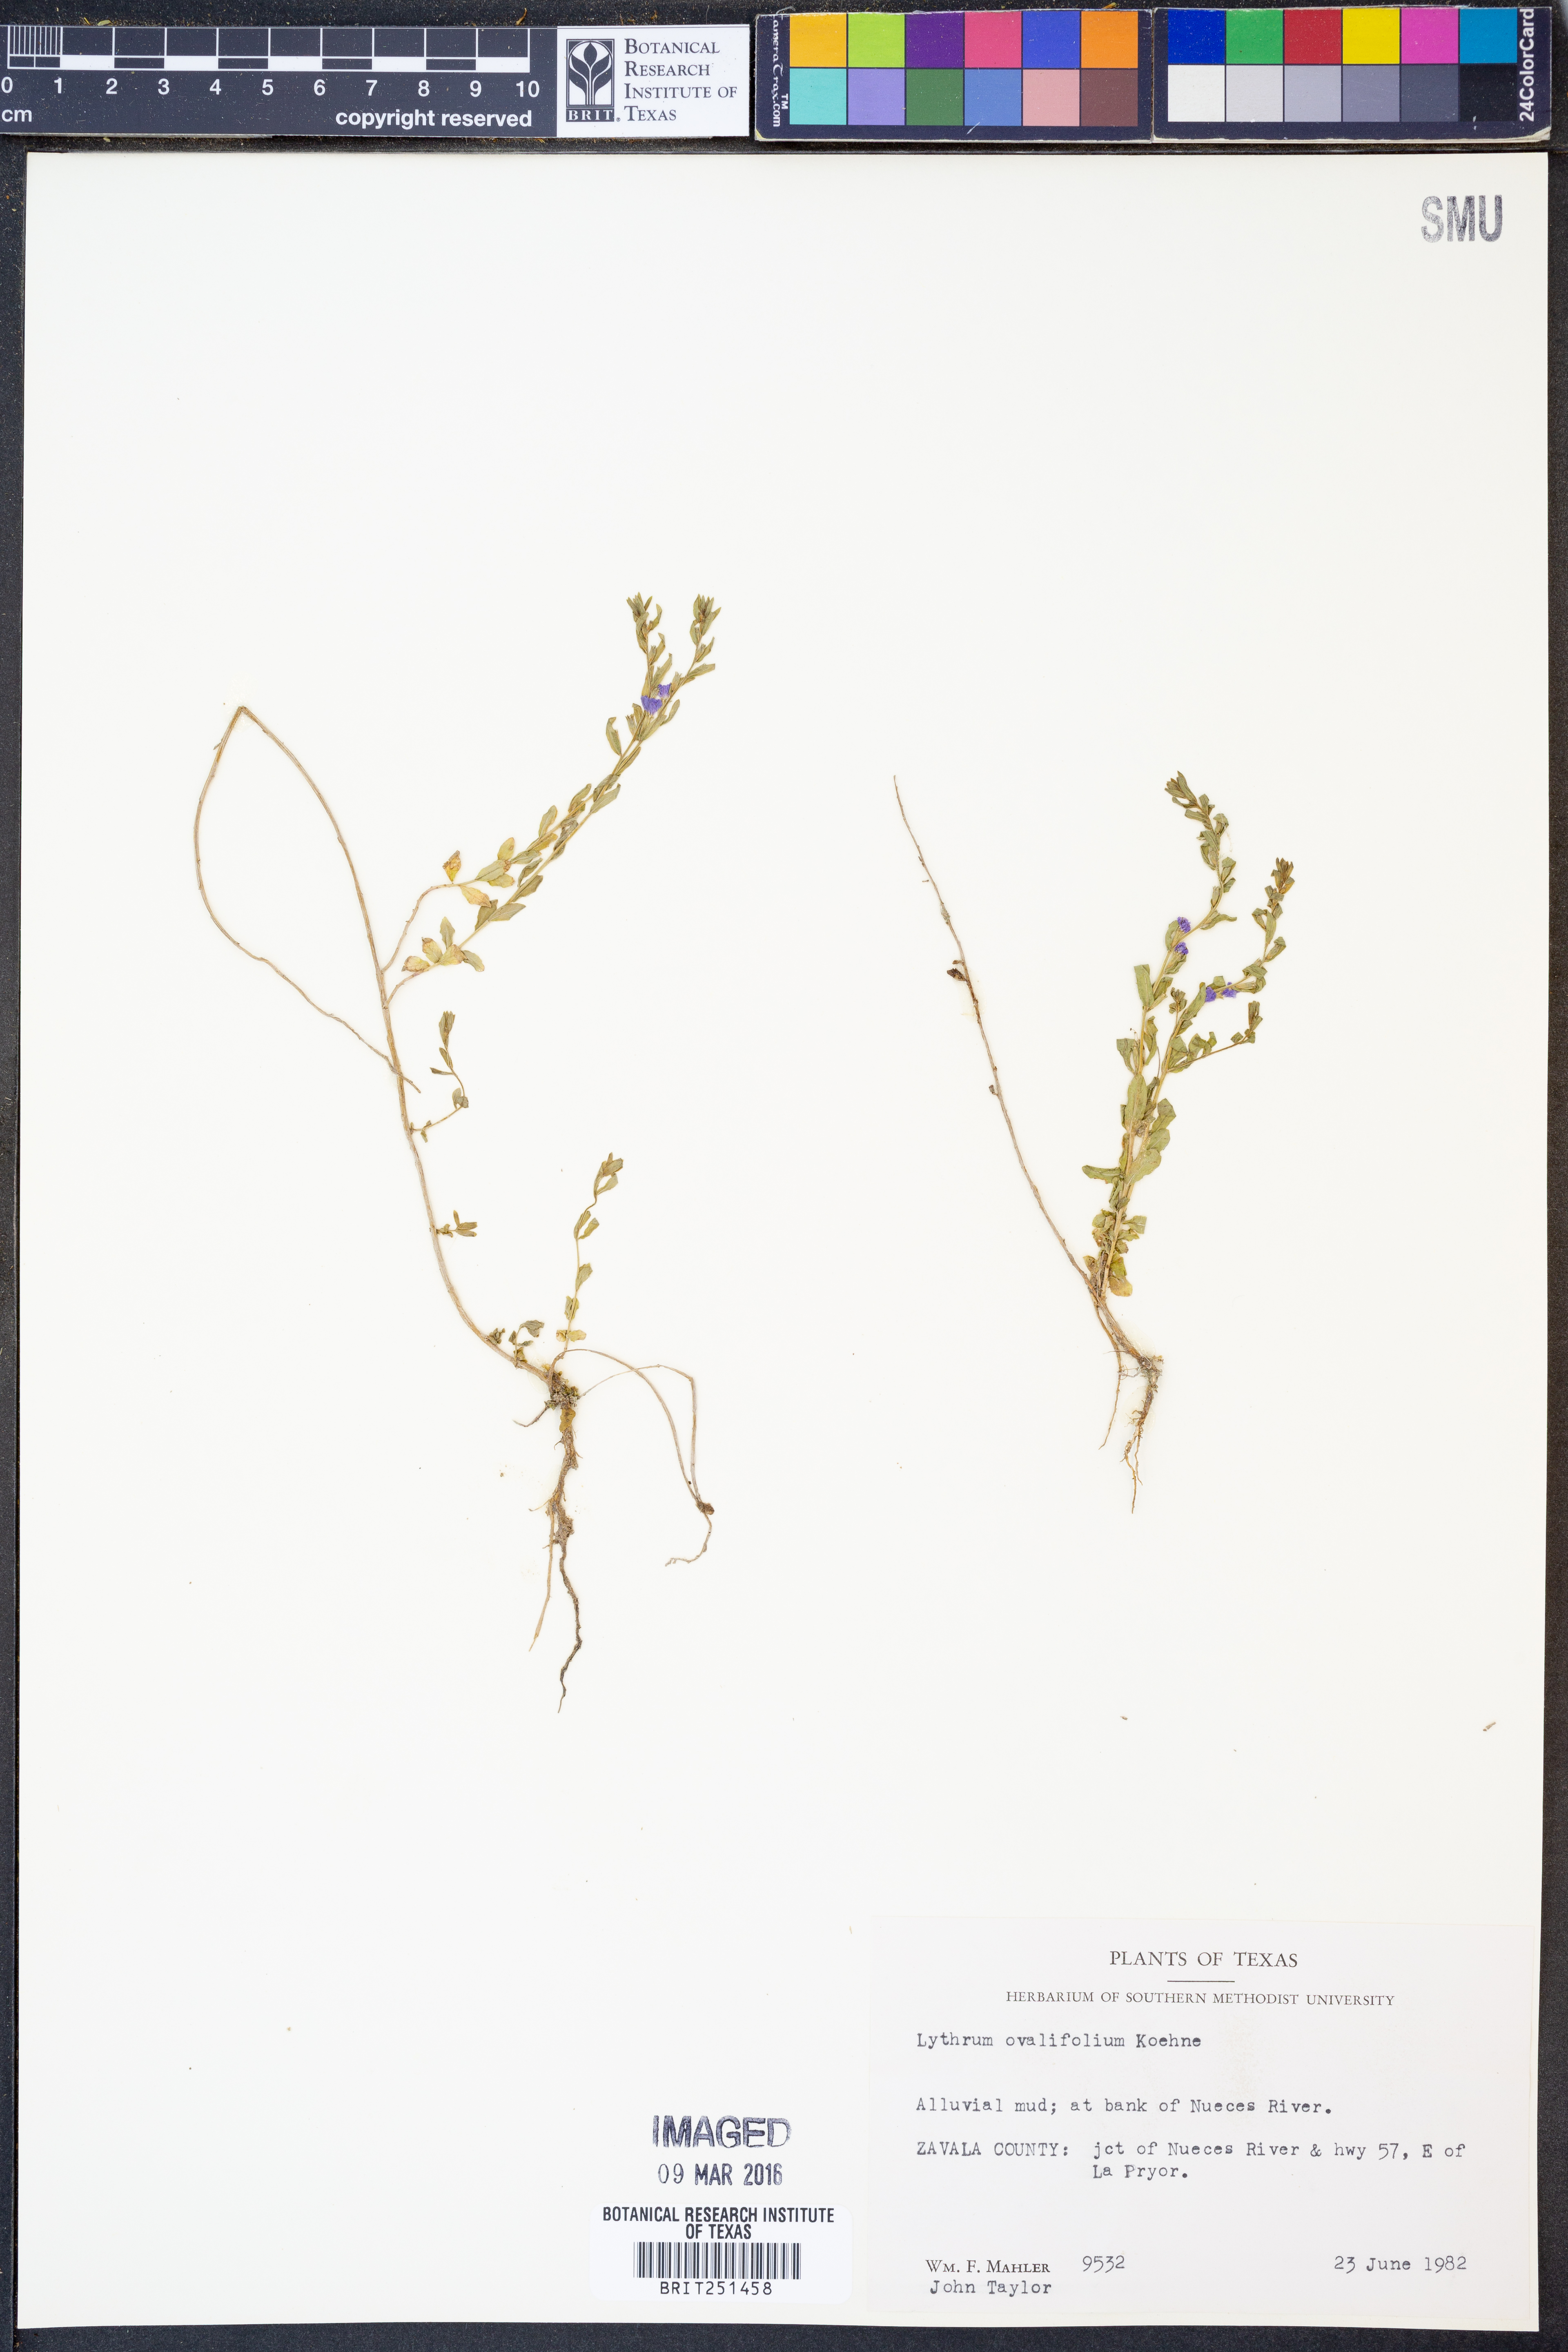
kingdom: Plantae
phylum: Tracheophyta
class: Magnoliopsida
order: Myrtales
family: Lythraceae
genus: Lythrum
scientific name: Lythrum ovalifolium
